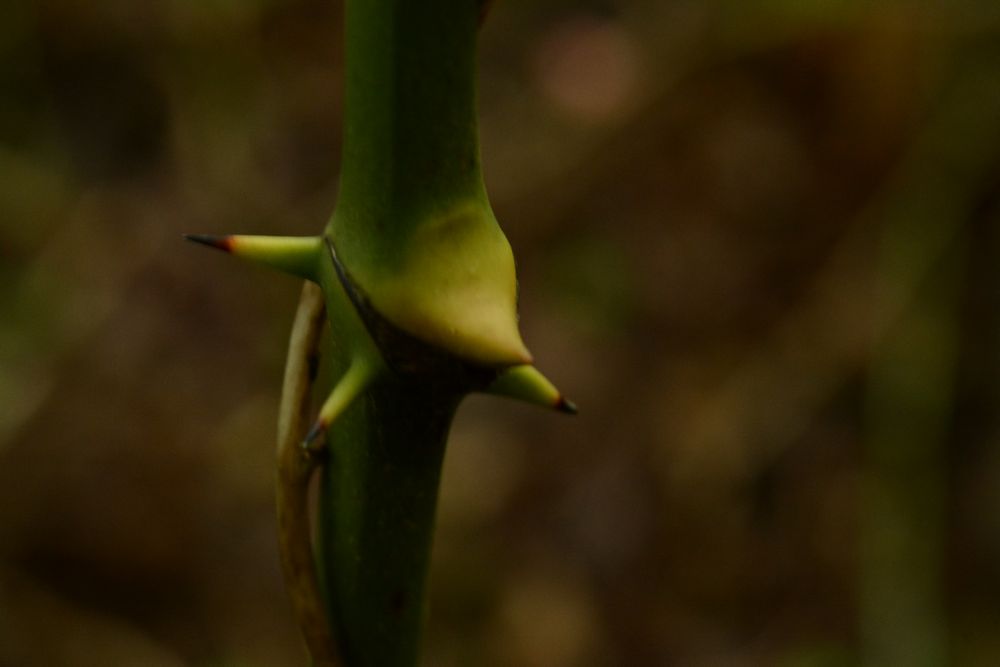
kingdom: Plantae
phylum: Tracheophyta
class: Liliopsida
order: Liliales
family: Smilacaceae
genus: Smilax
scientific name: Smilax excelsa
